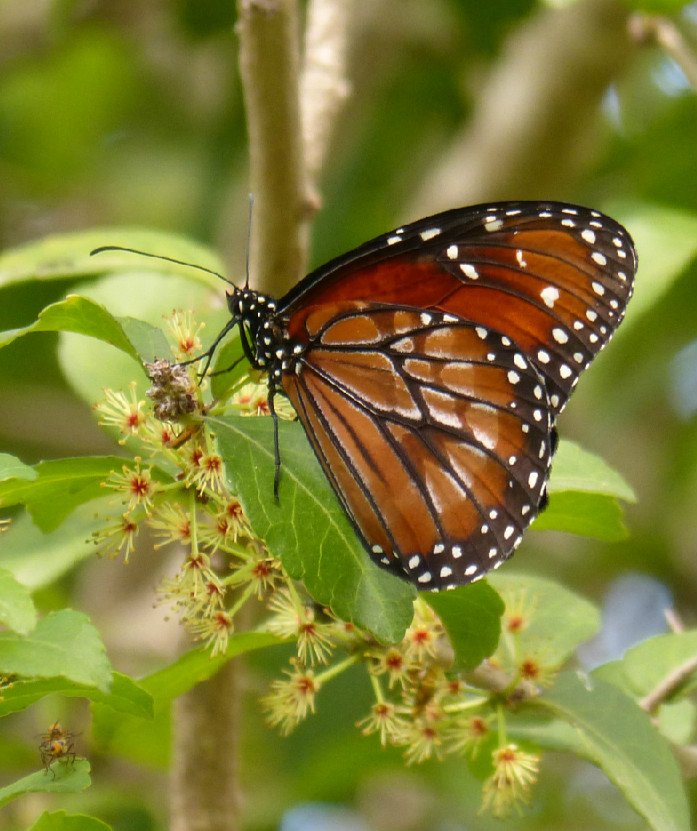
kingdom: Animalia
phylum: Arthropoda
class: Insecta
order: Lepidoptera
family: Nymphalidae
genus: Danaus
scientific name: Danaus eresimus
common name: Soldier
